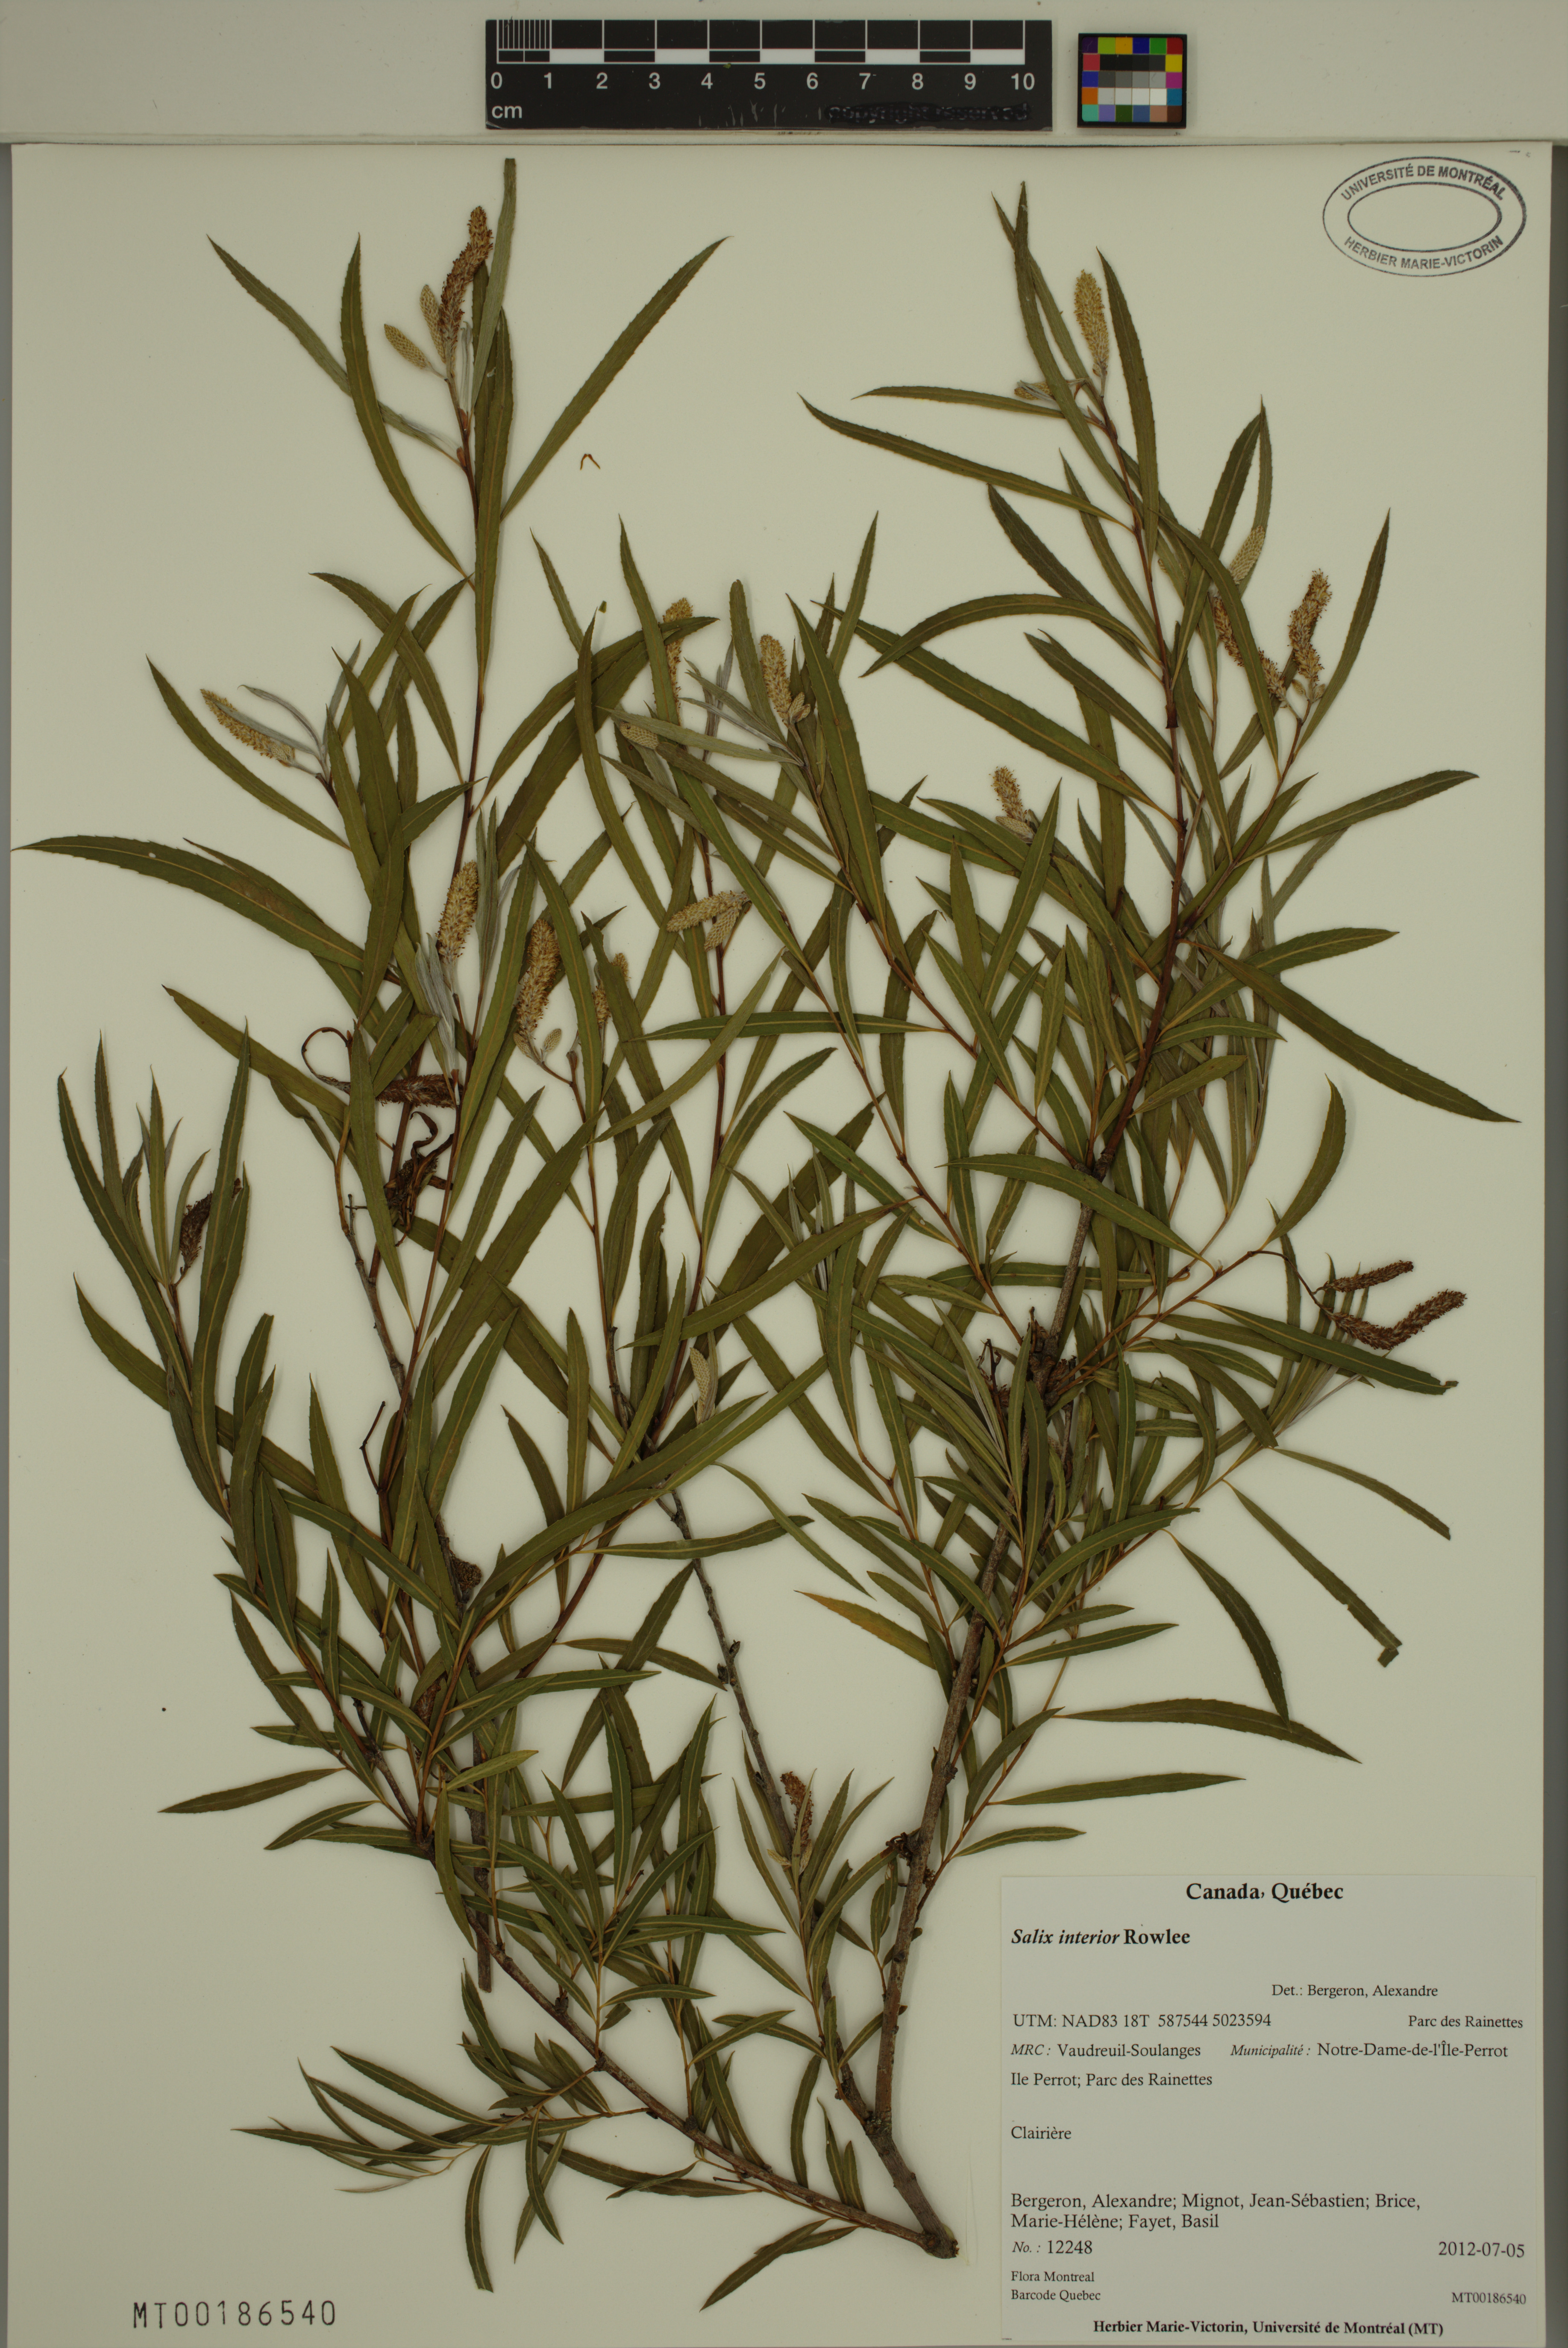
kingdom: Plantae
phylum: Tracheophyta
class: Magnoliopsida
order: Malpighiales
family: Salicaceae
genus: Salix
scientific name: Salix interior
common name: Sandbar willow
